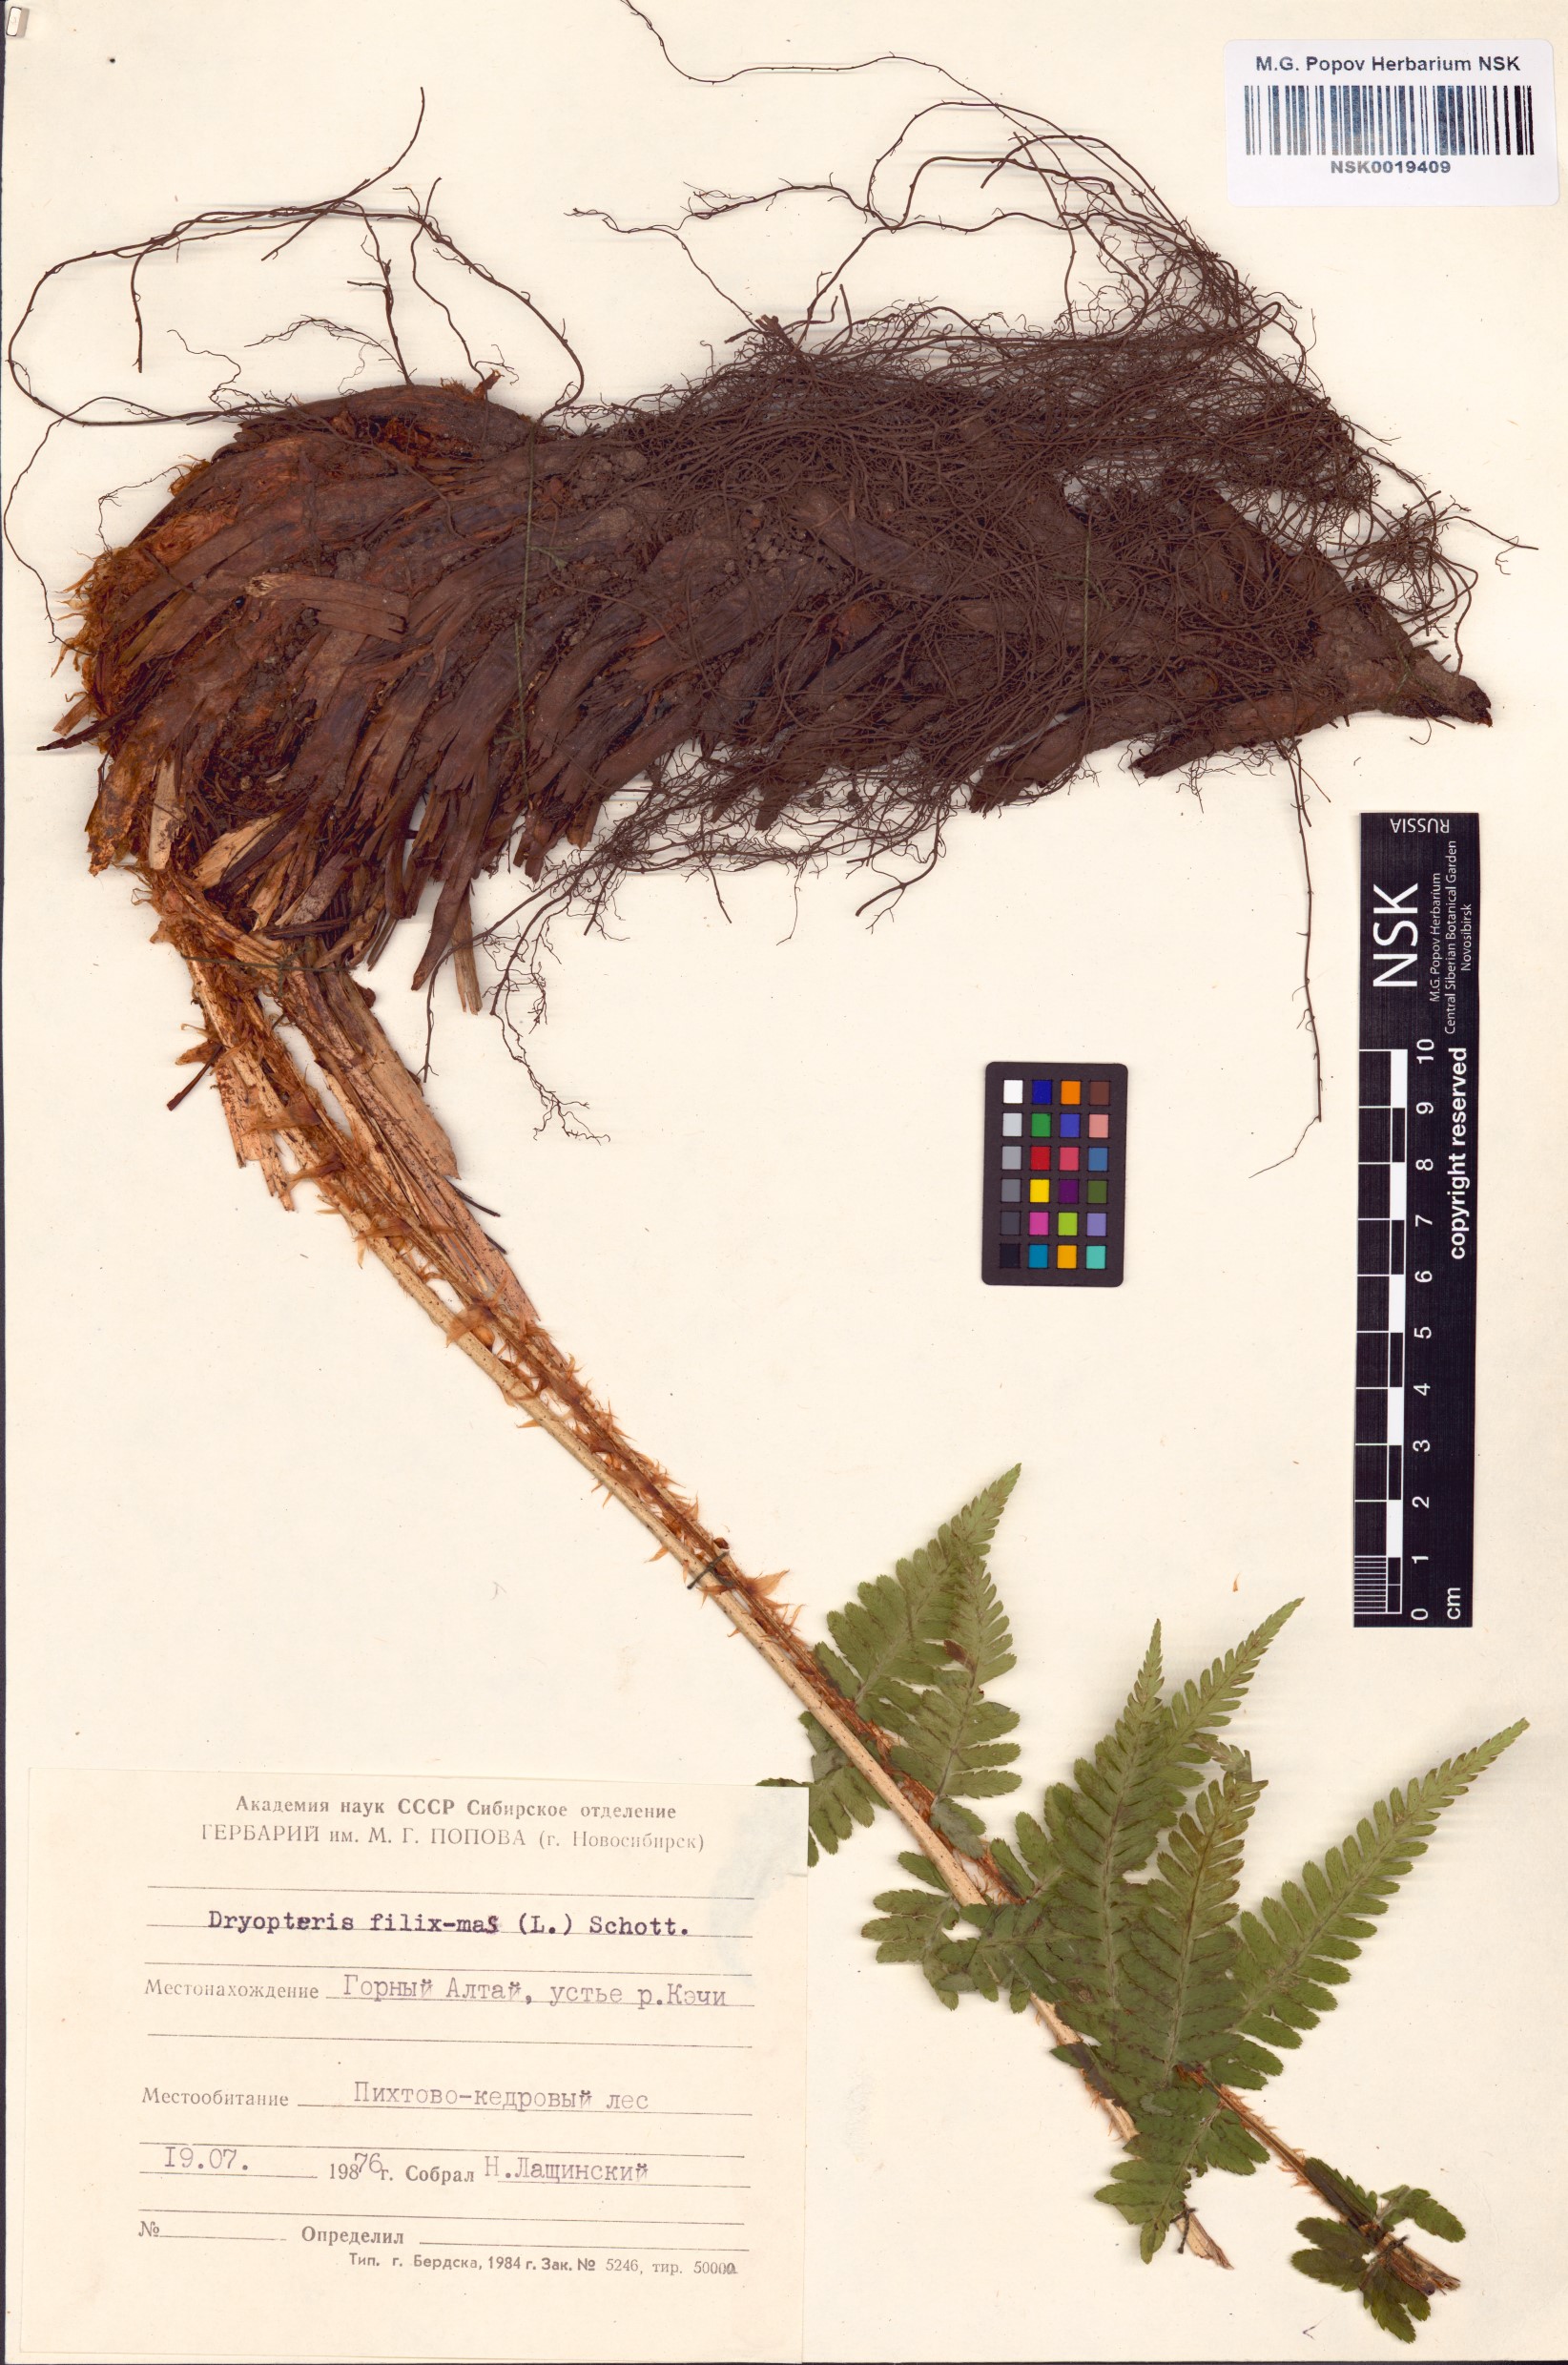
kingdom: Plantae
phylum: Tracheophyta
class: Polypodiopsida
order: Polypodiales
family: Dryopteridaceae
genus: Dryopteris
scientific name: Dryopteris filix-mas
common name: Male fern
